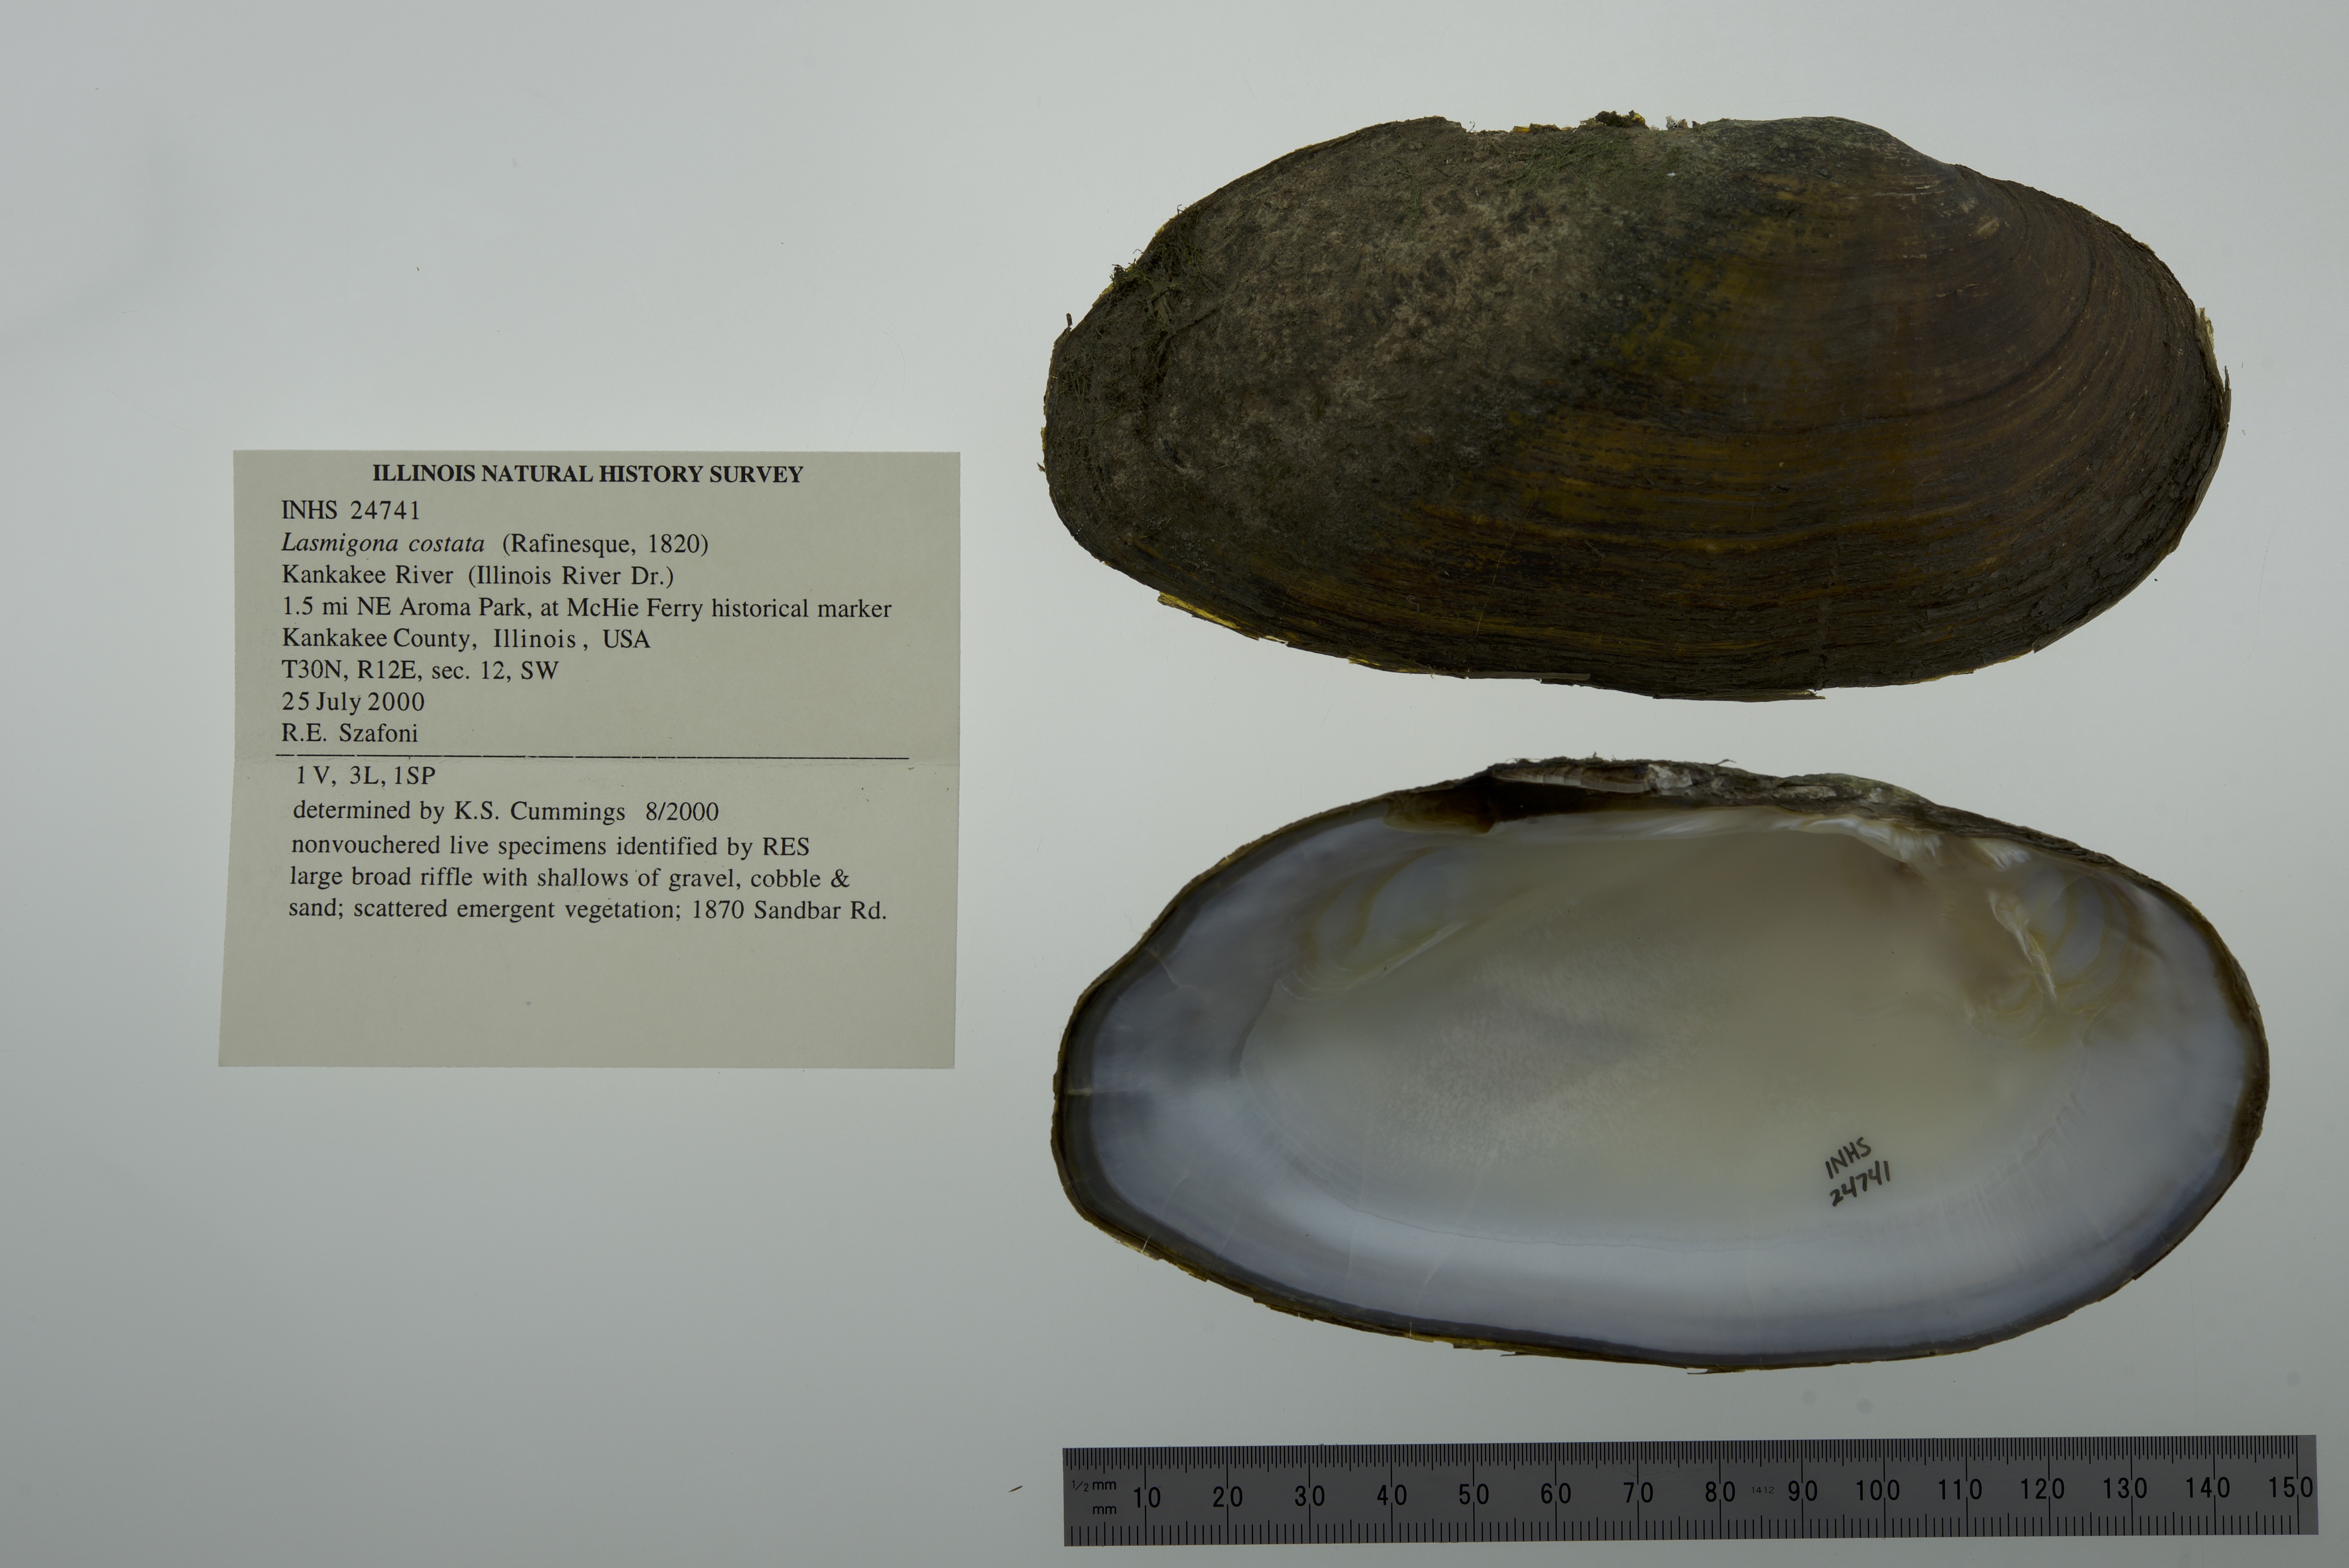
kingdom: Animalia
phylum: Mollusca
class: Bivalvia
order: Unionida
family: Unionidae
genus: Lasmigona
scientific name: Lasmigona costata
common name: Flutedshell
